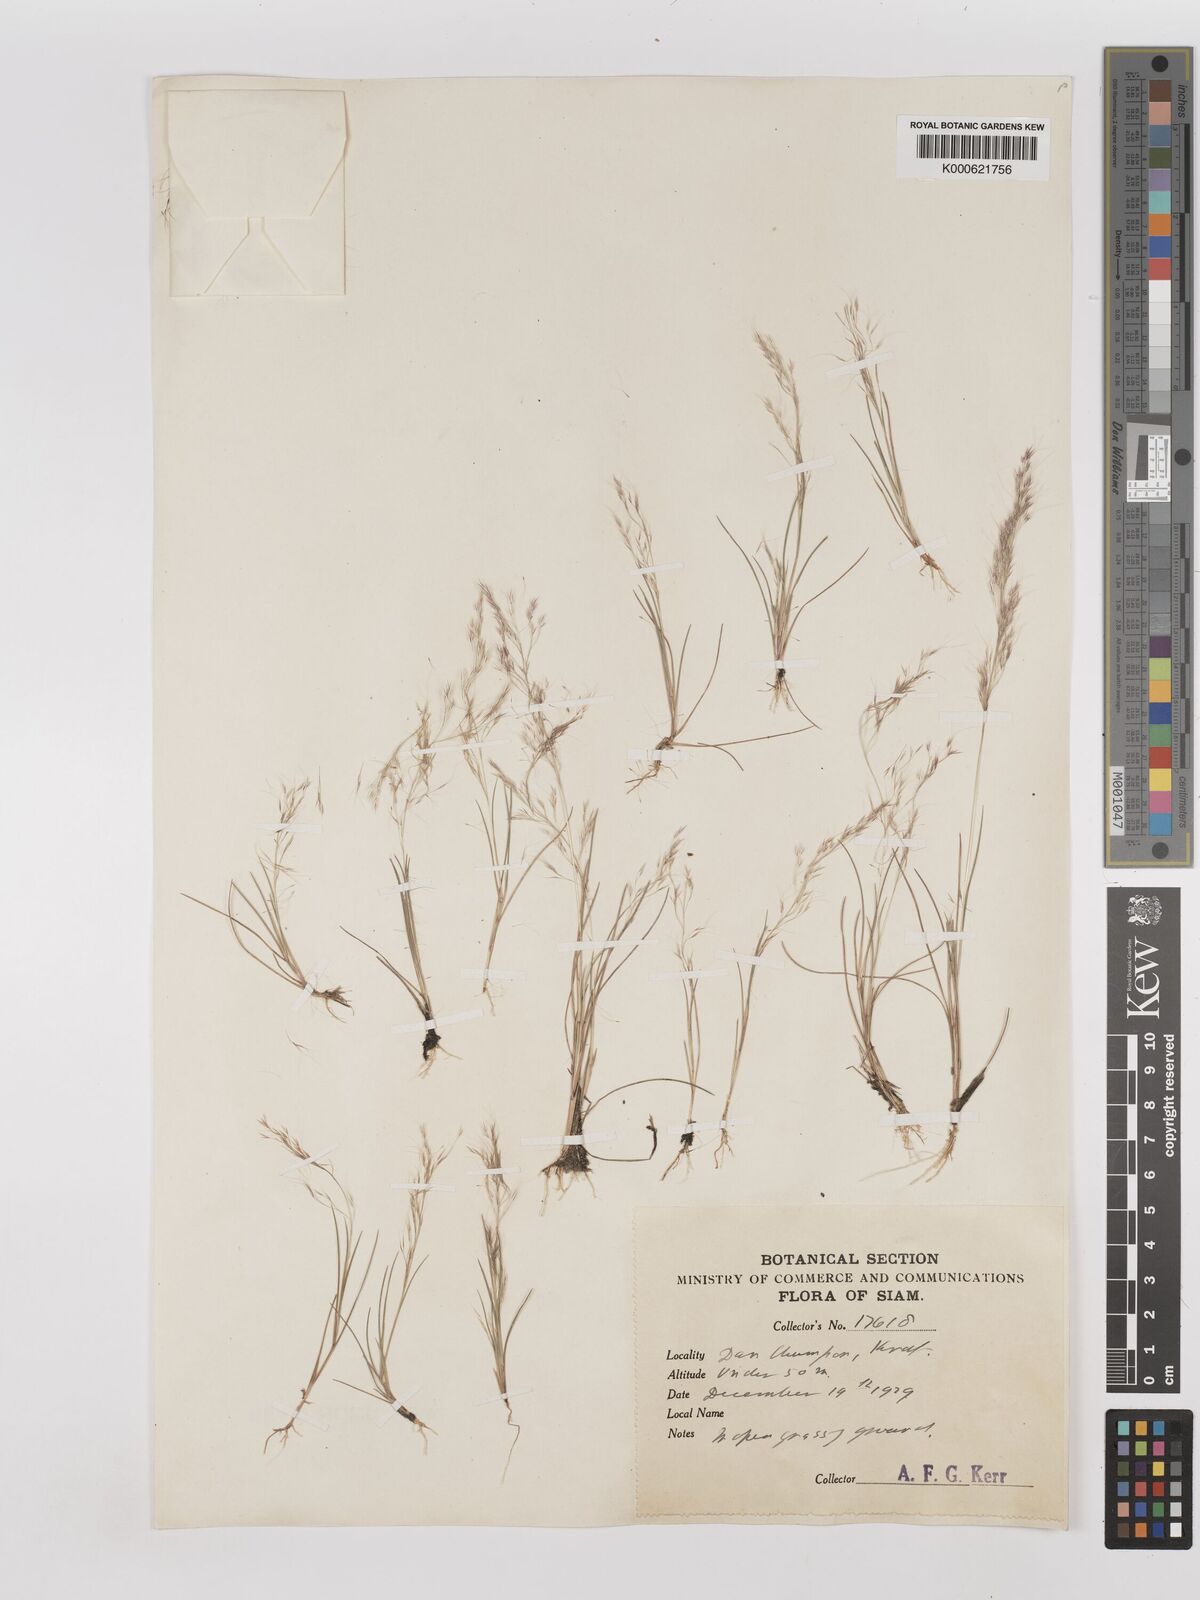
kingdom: Plantae
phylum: Tracheophyta
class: Liliopsida
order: Poales
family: Poaceae
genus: Aristida
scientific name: Aristida cumingiana
